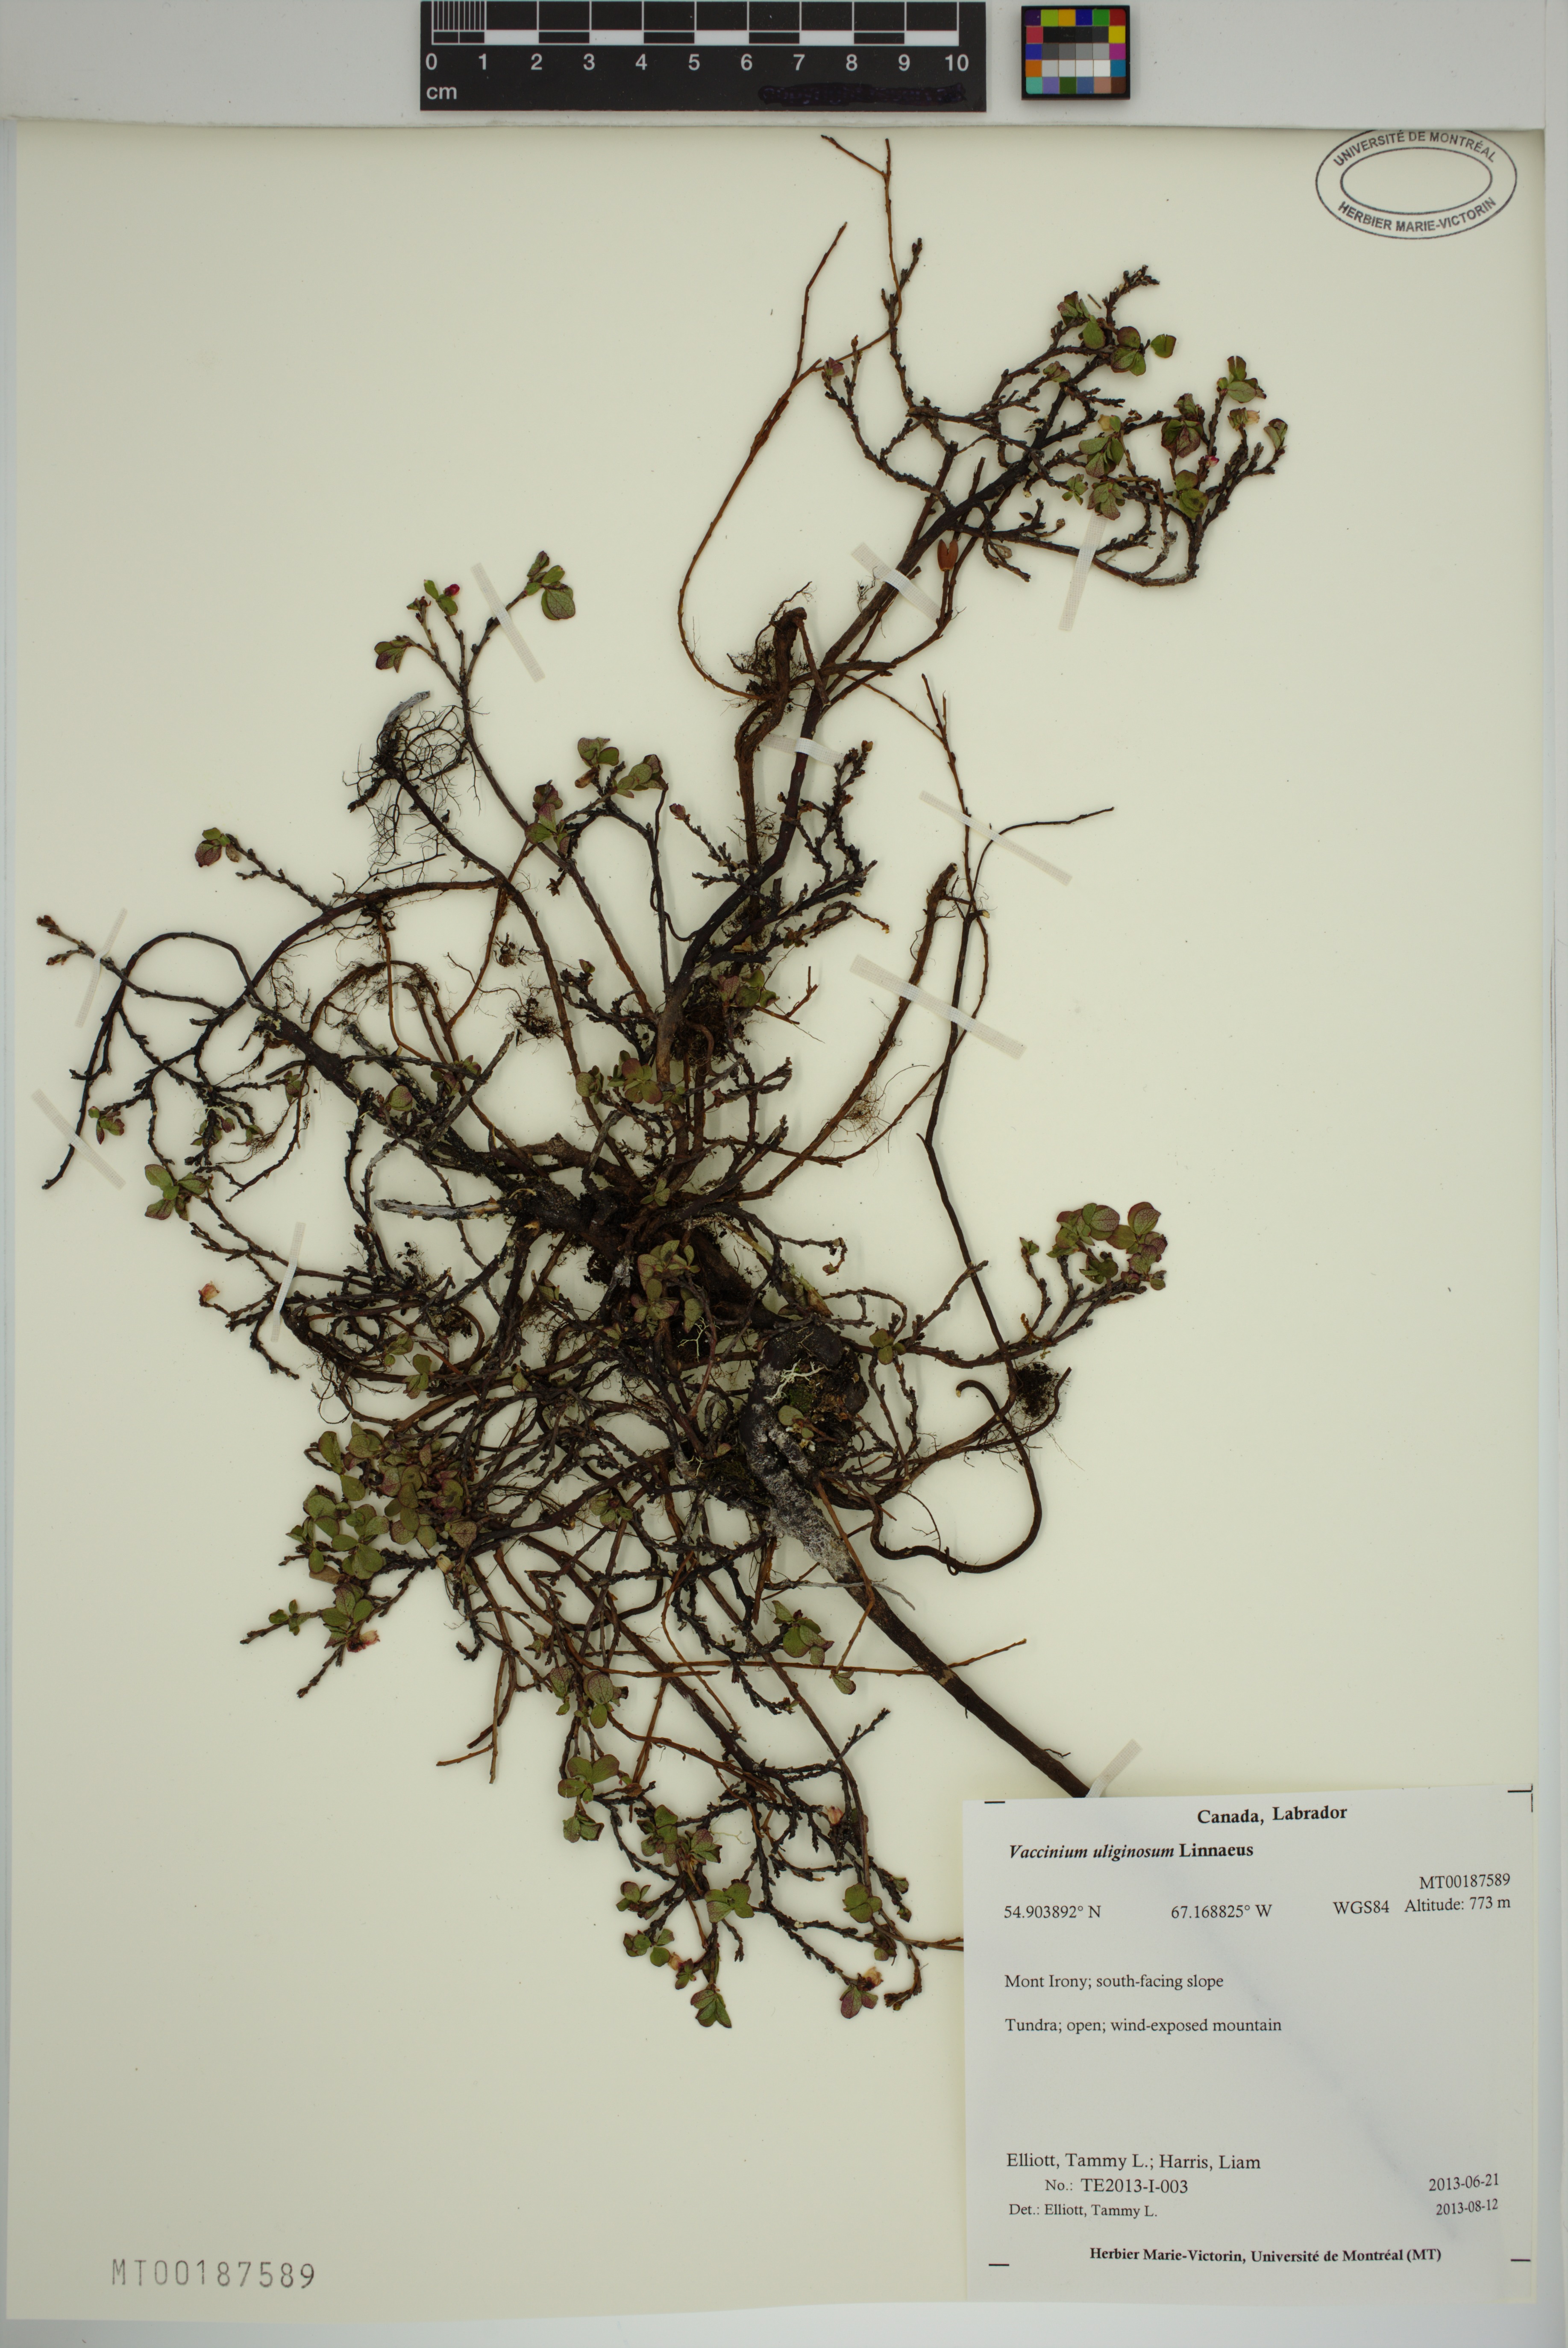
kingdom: Plantae
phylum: Tracheophyta
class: Magnoliopsida
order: Ericales
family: Ericaceae
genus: Vaccinium
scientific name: Vaccinium uliginosum
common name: Bog bilberry
